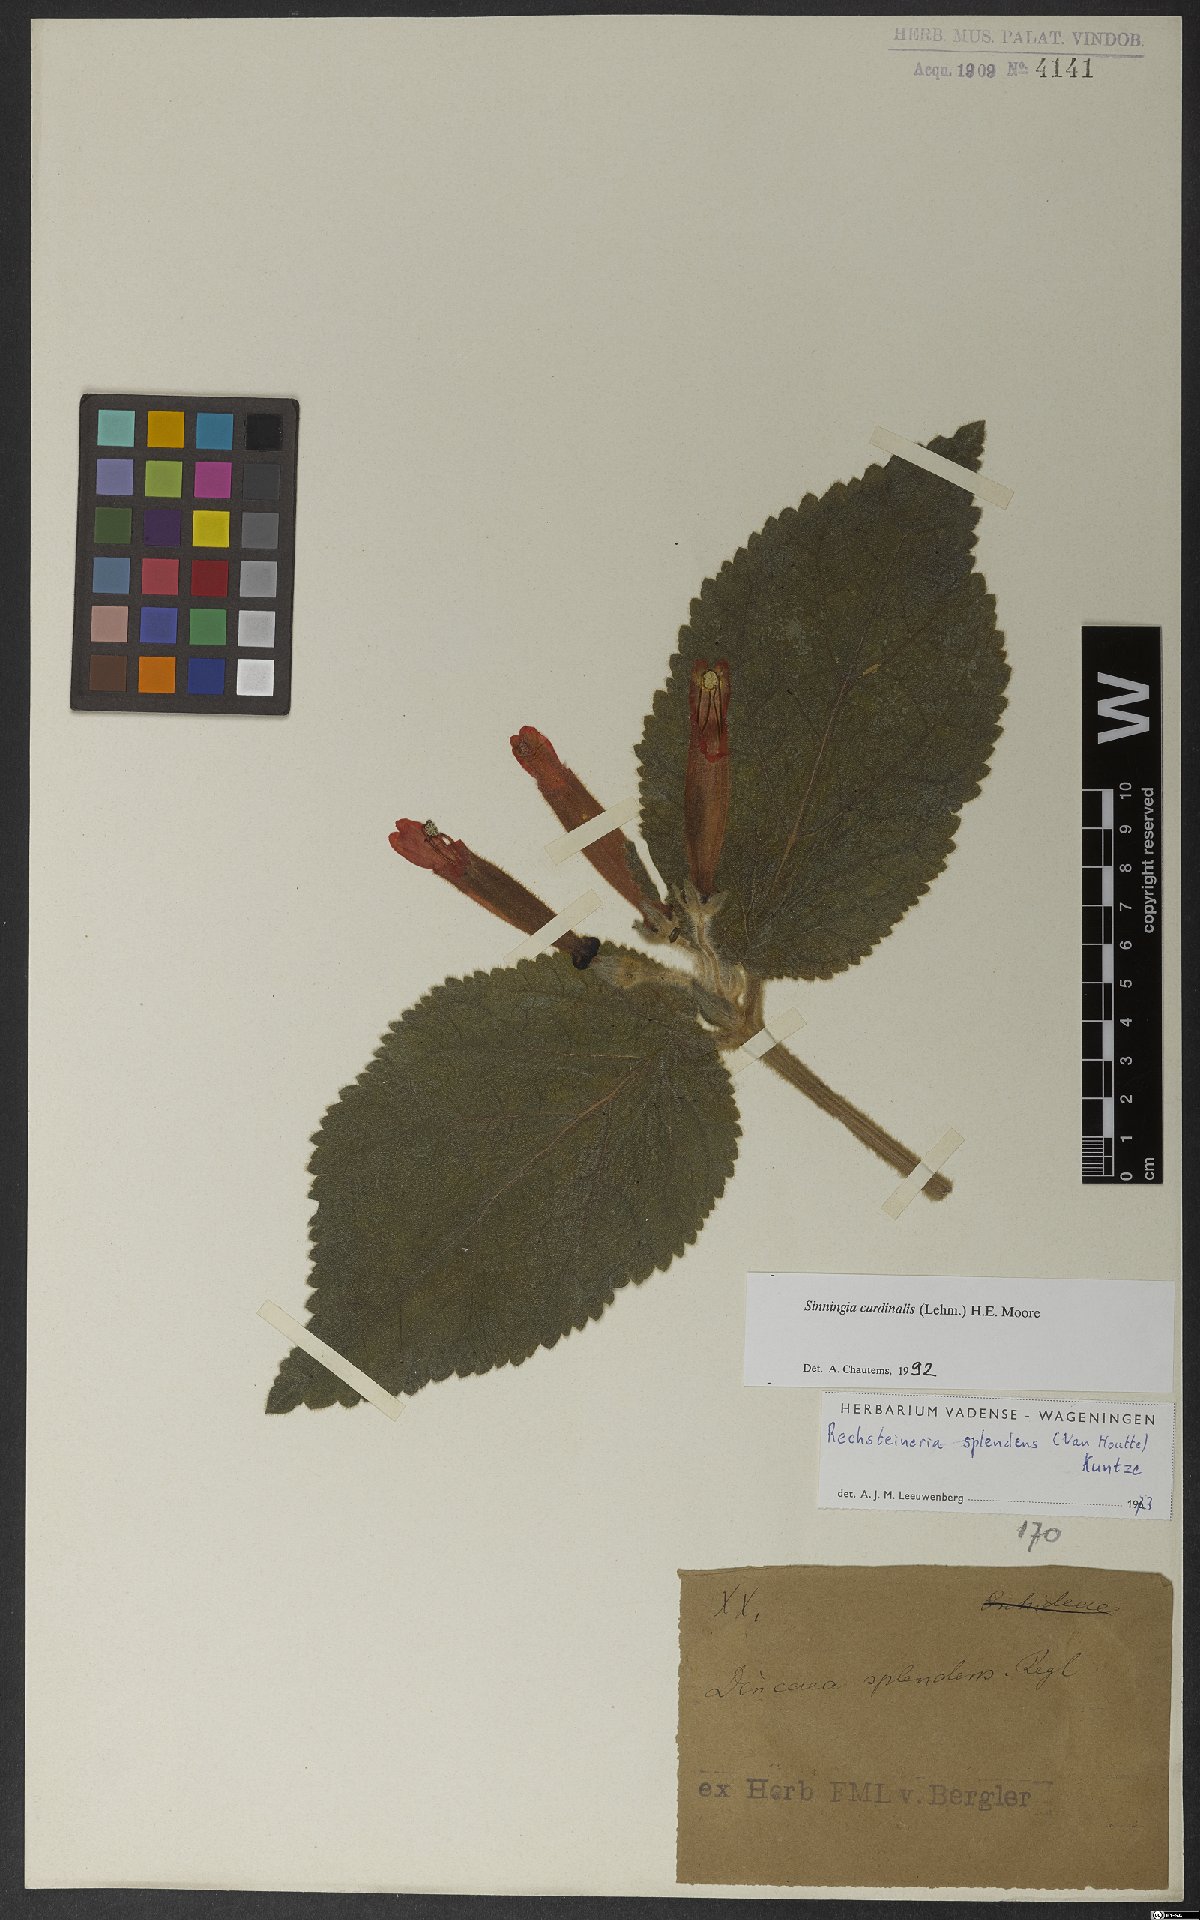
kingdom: Plantae
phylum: Tracheophyta
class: Magnoliopsida
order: Lamiales
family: Gesneriaceae
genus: Sinningia
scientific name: Sinningia cardinalis
